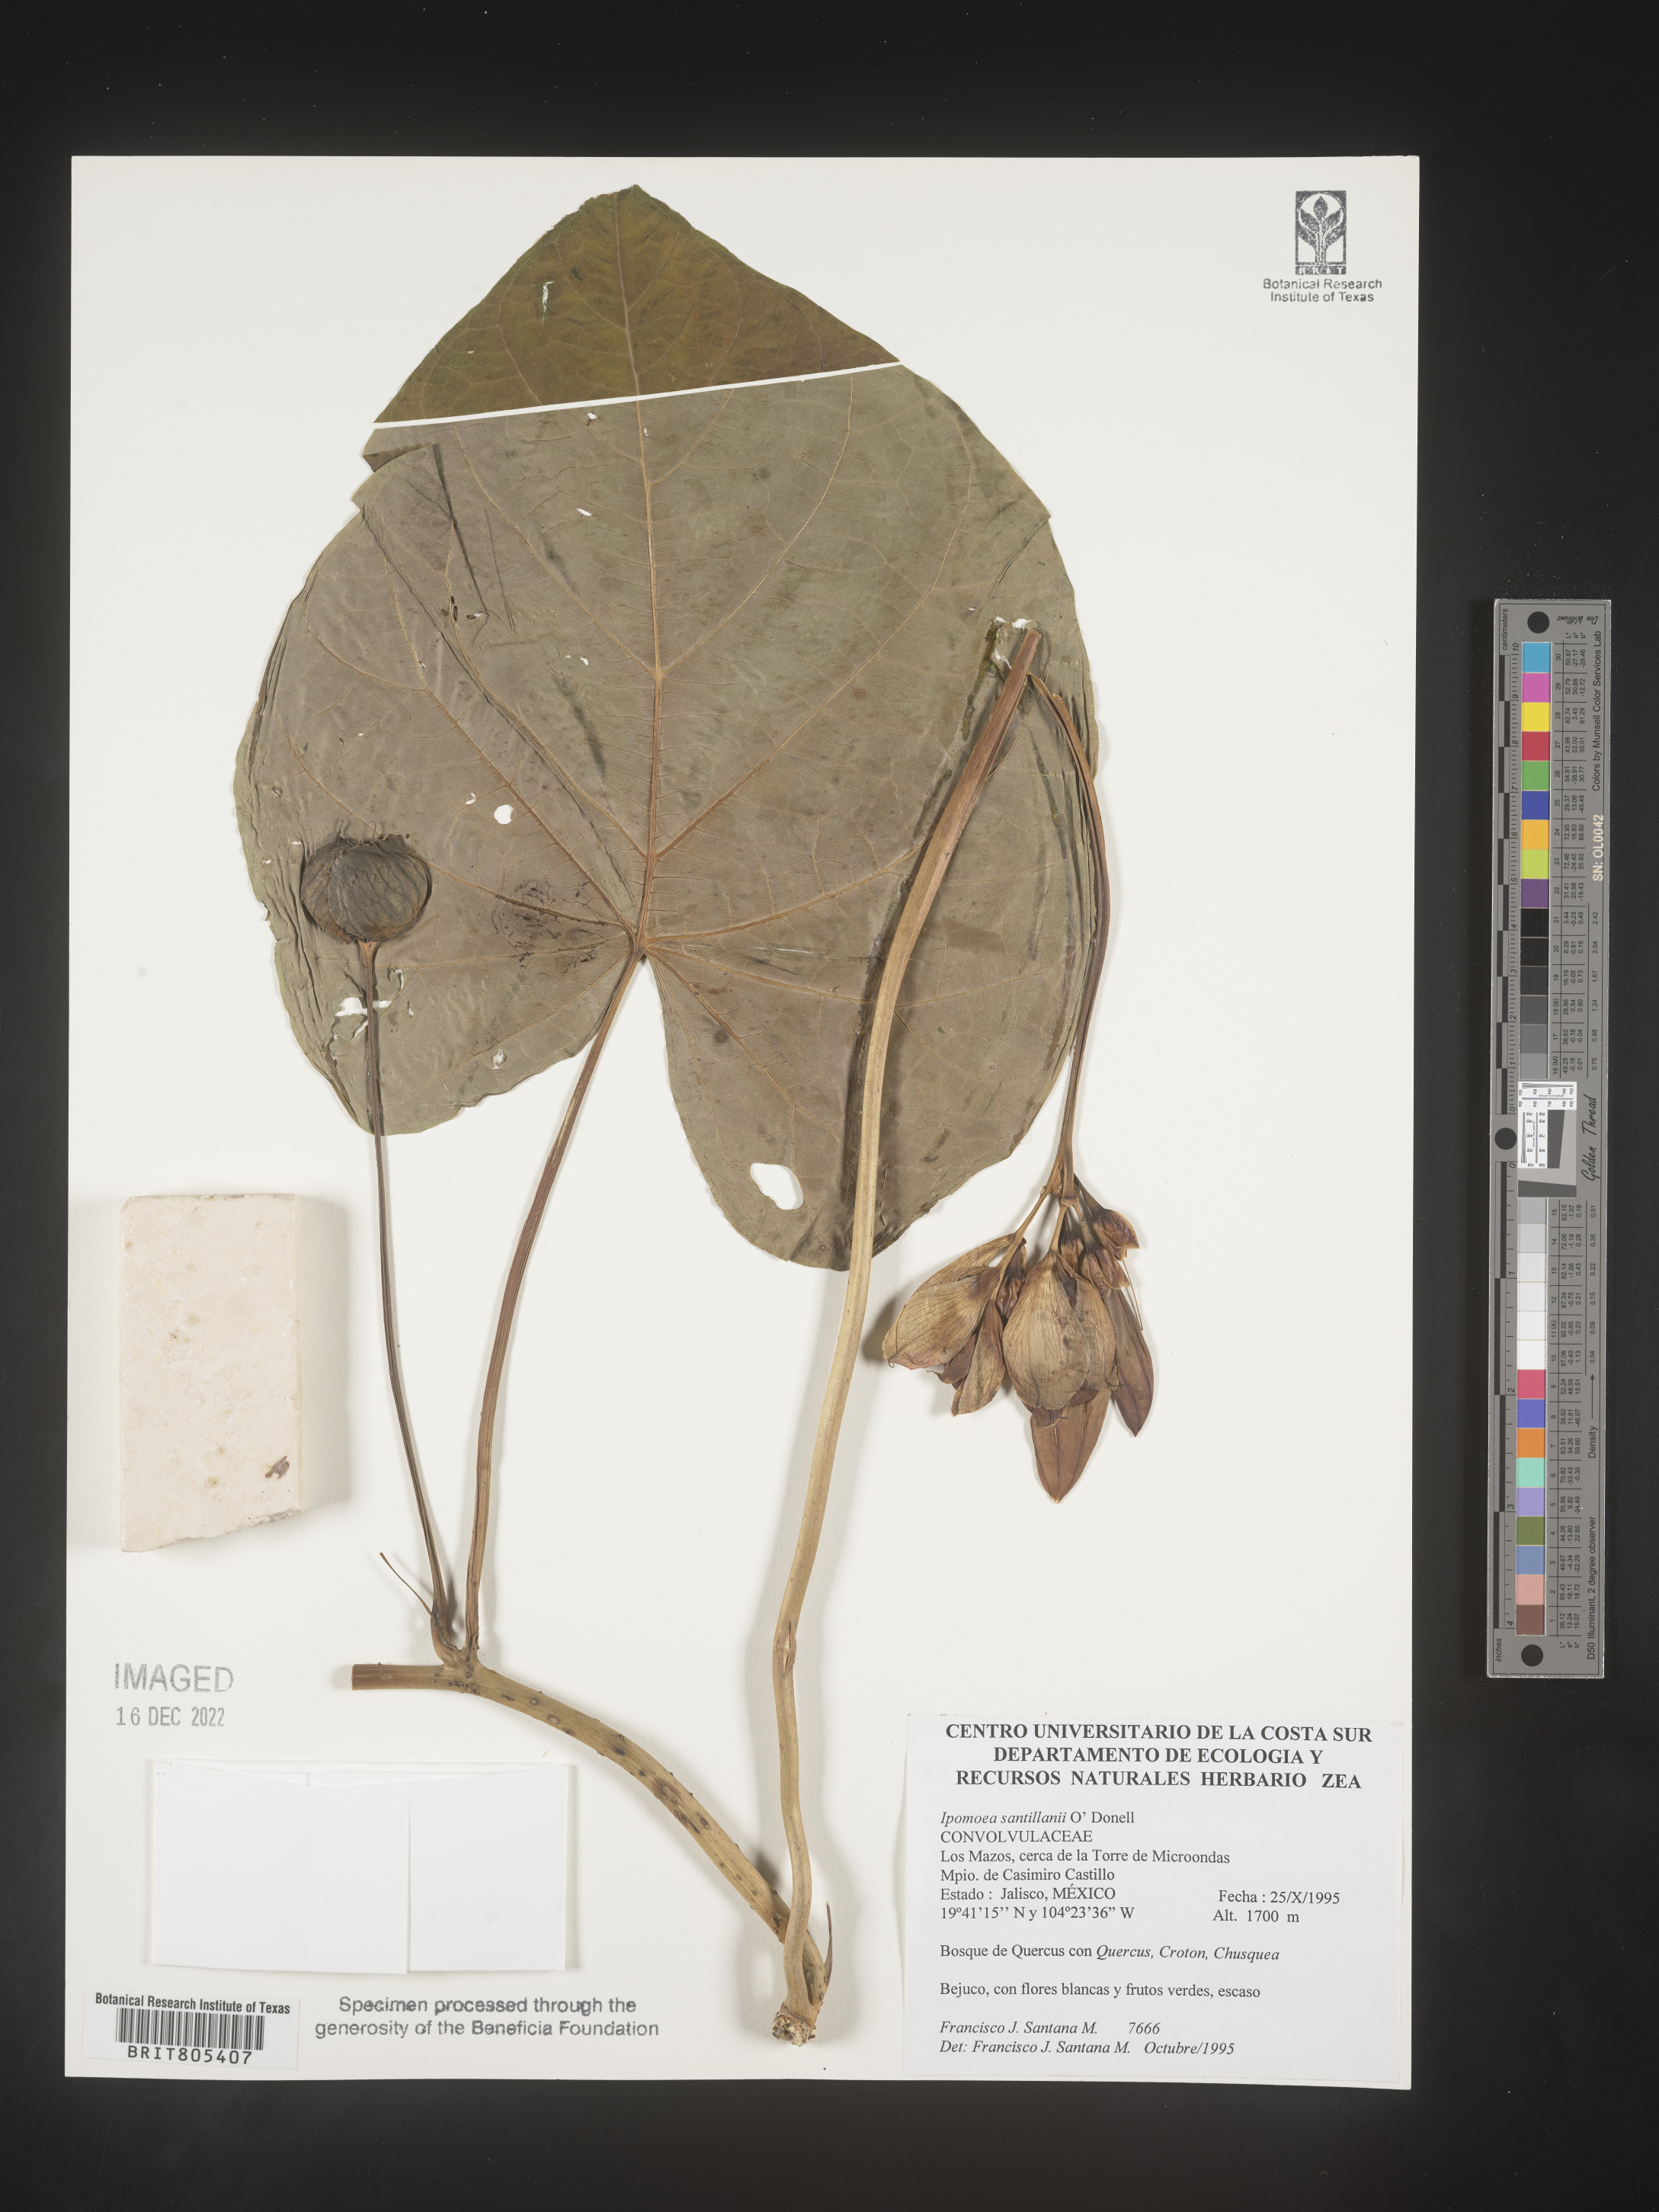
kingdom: Plantae
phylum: Tracheophyta
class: Magnoliopsida
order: Solanales
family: Convolvulaceae
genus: Ipomoea
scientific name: Ipomoea
